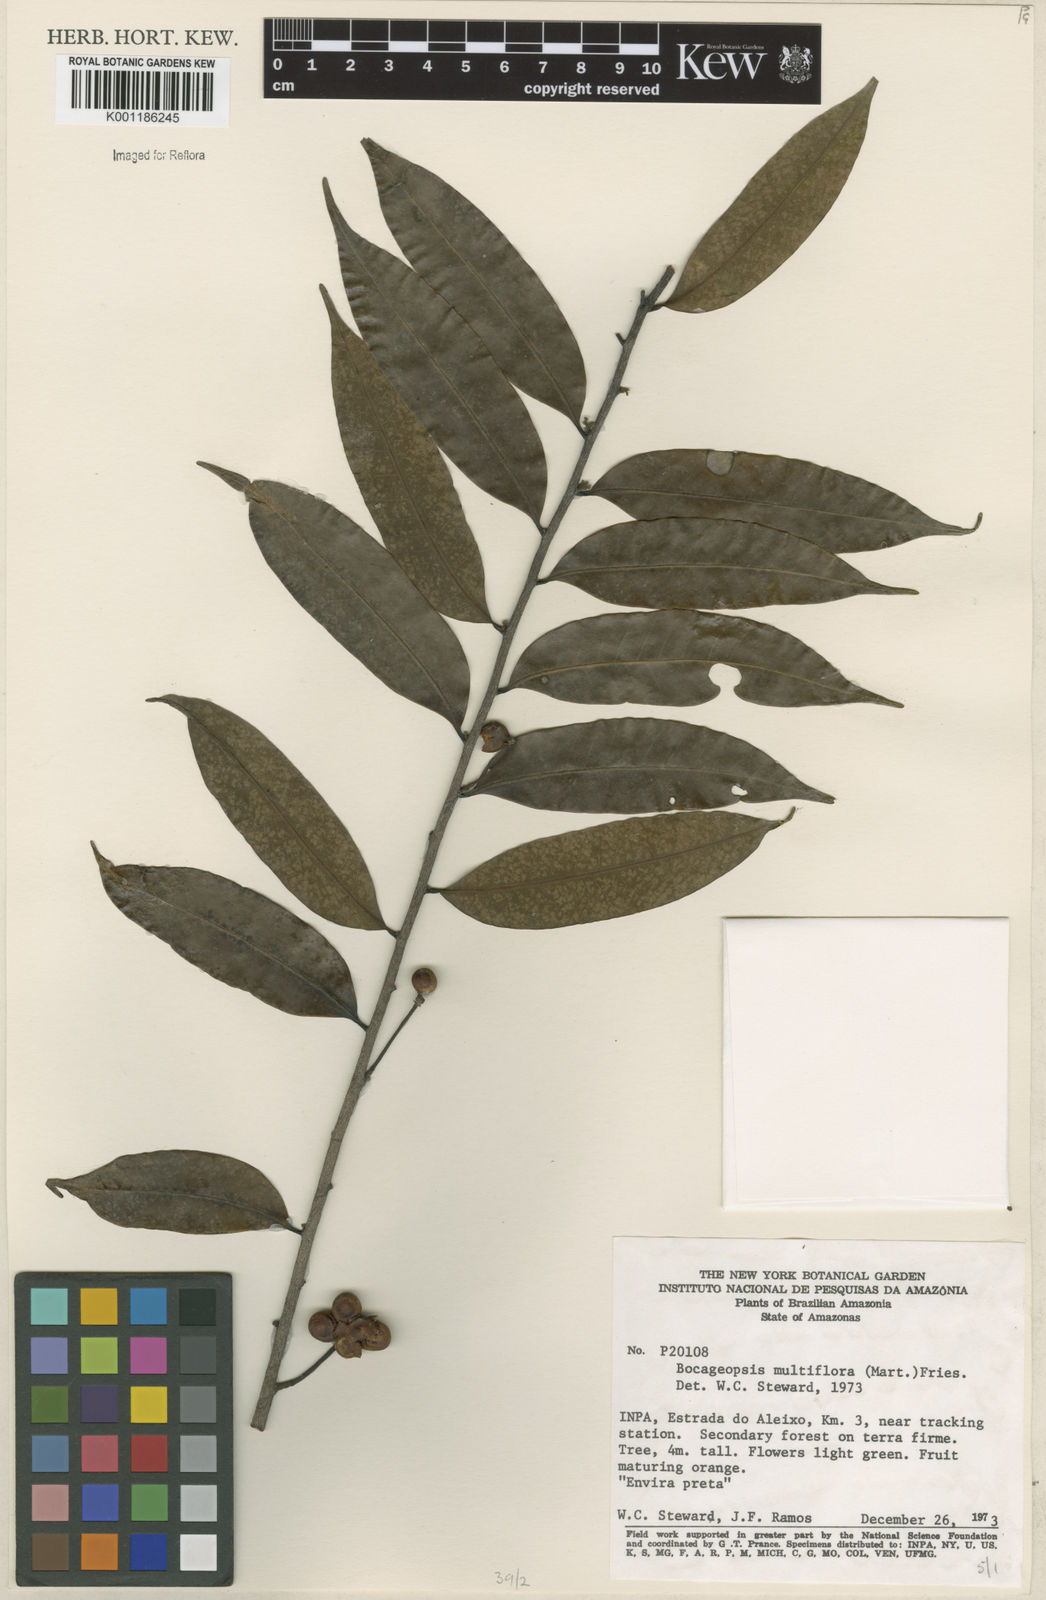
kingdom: Plantae
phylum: Tracheophyta
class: Magnoliopsida
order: Magnoliales
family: Annonaceae
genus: Bocageopsis
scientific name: Bocageopsis multiflora
